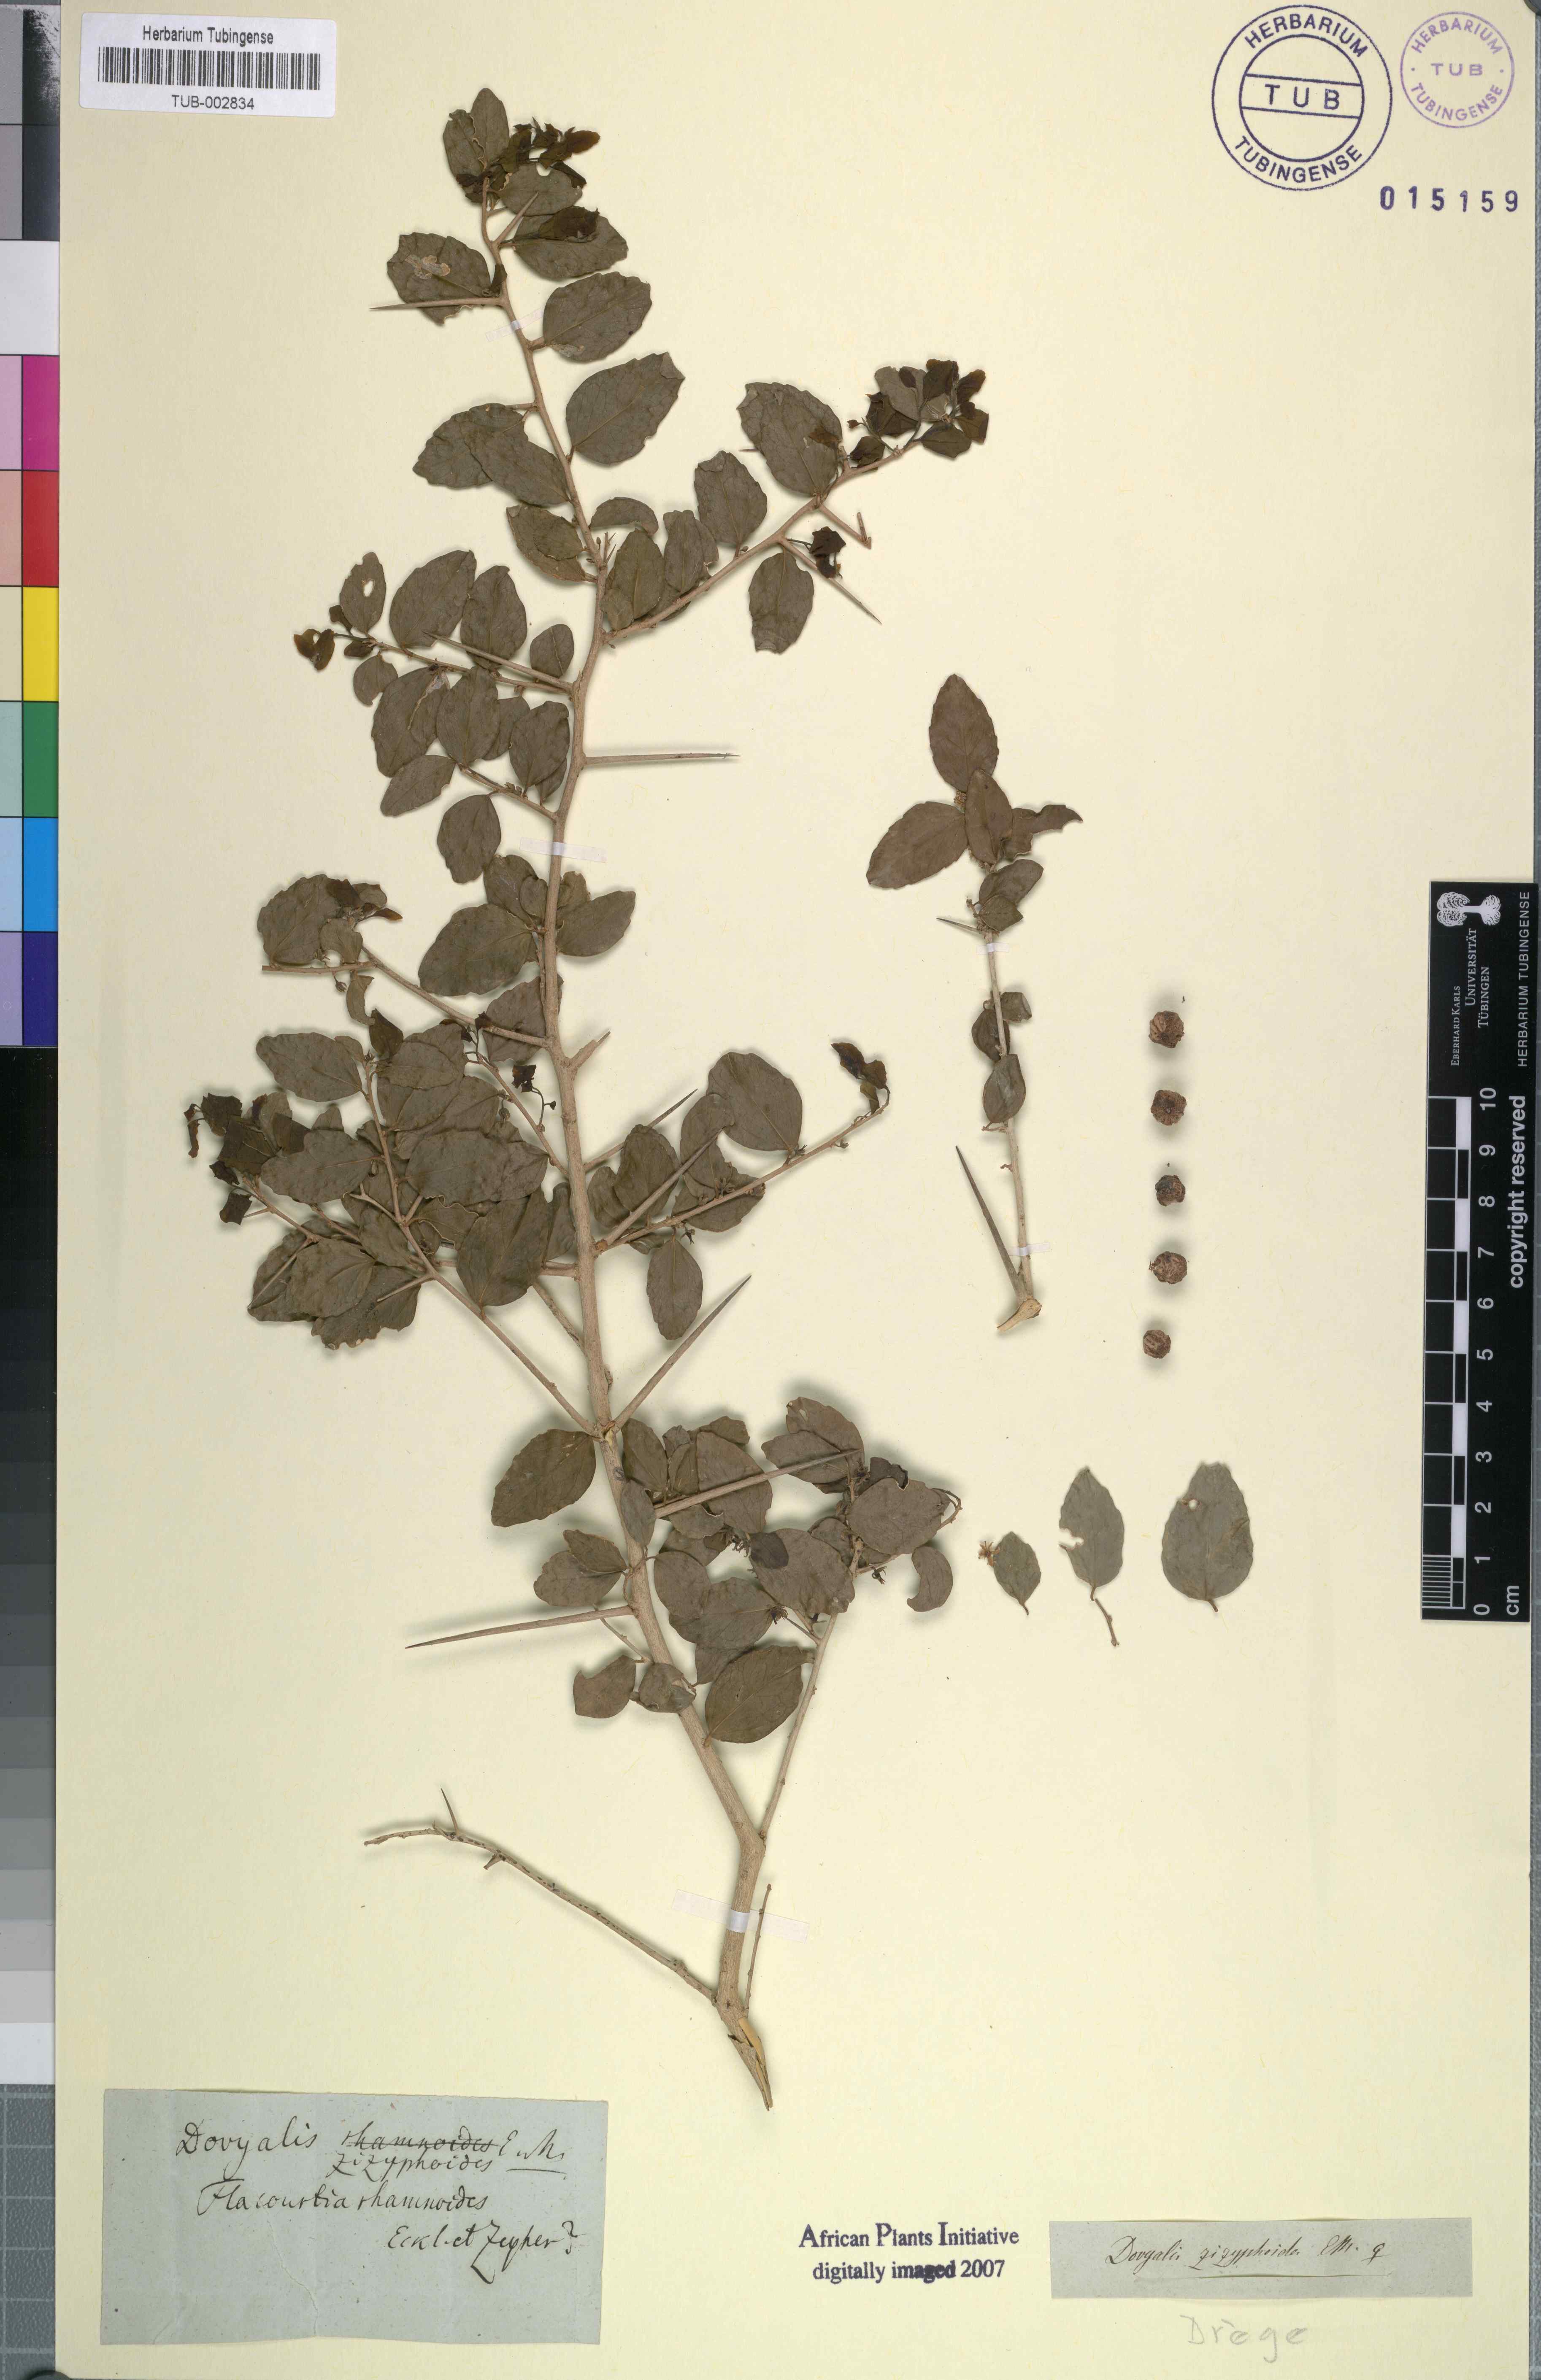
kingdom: Plantae
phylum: Tracheophyta
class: Magnoliopsida
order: Malpighiales
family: Salicaceae
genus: Dovyalis
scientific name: Dovyalis rhamnoides
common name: Sourberry
